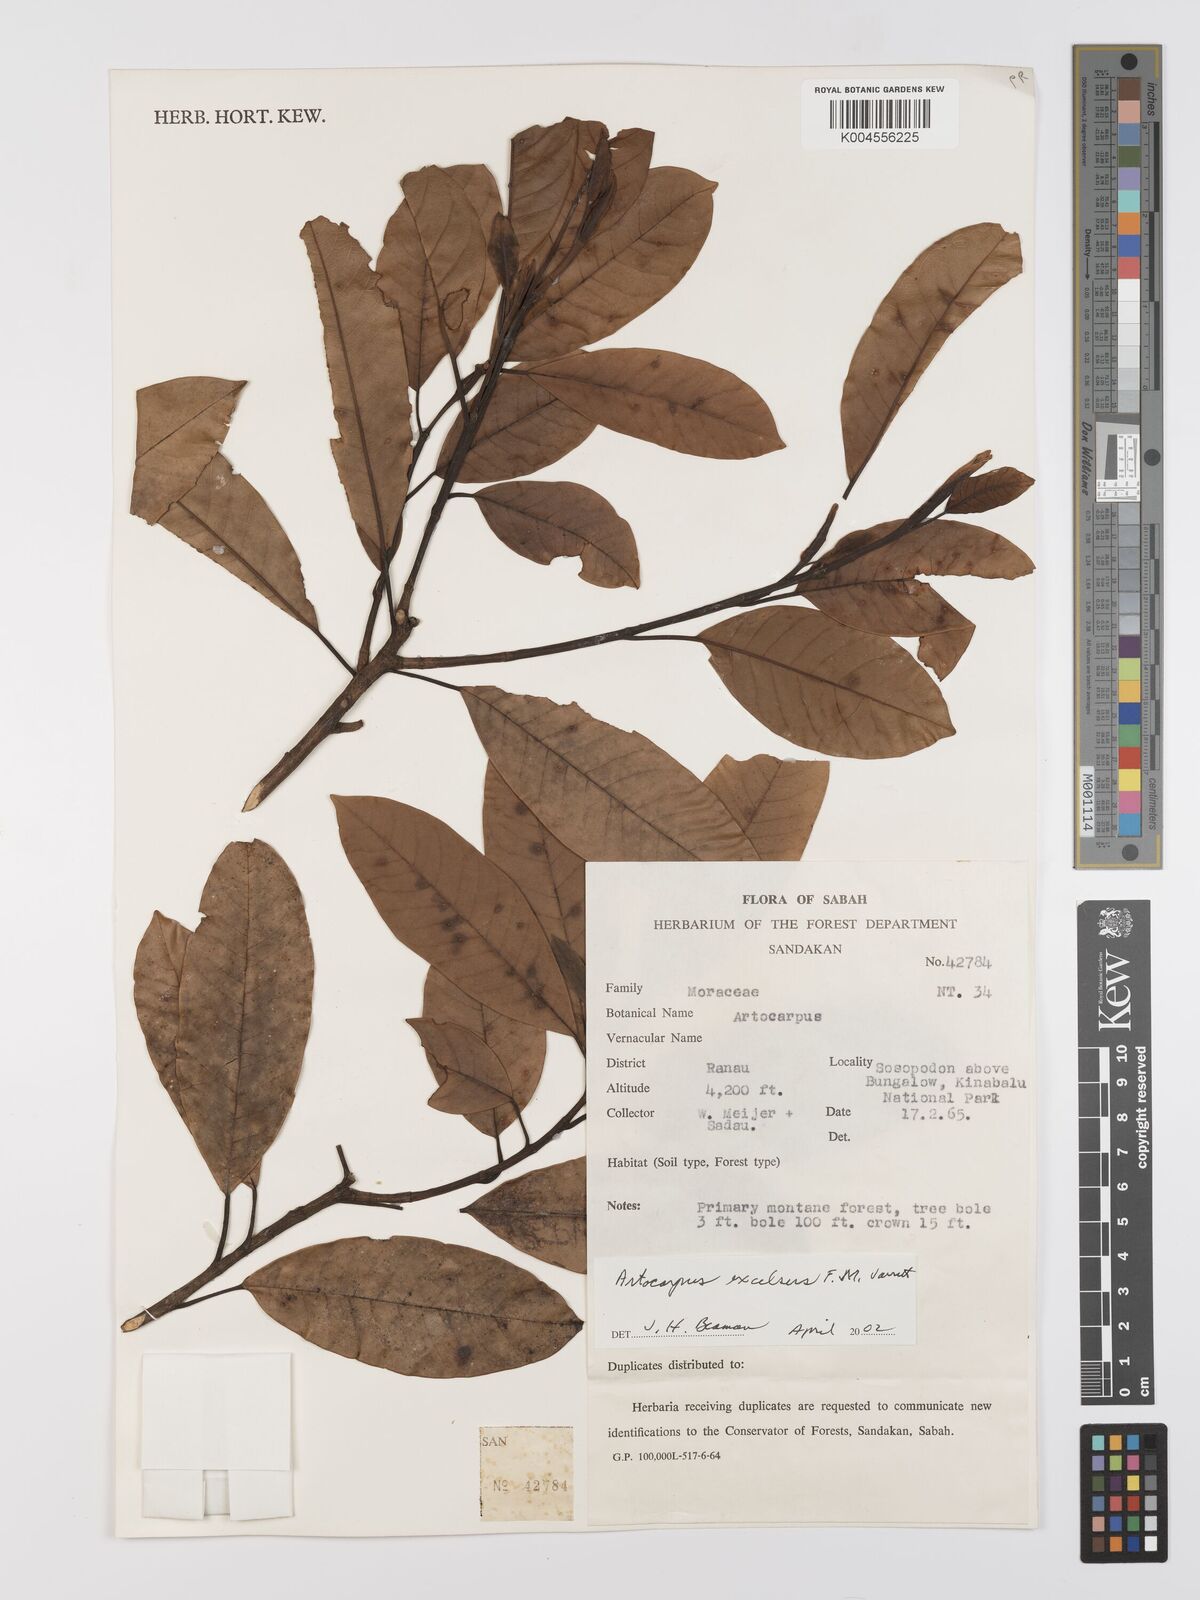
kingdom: Plantae
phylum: Tracheophyta
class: Magnoliopsida
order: Rosales
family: Moraceae
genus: Artocarpus
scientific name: Artocarpus excelsus
